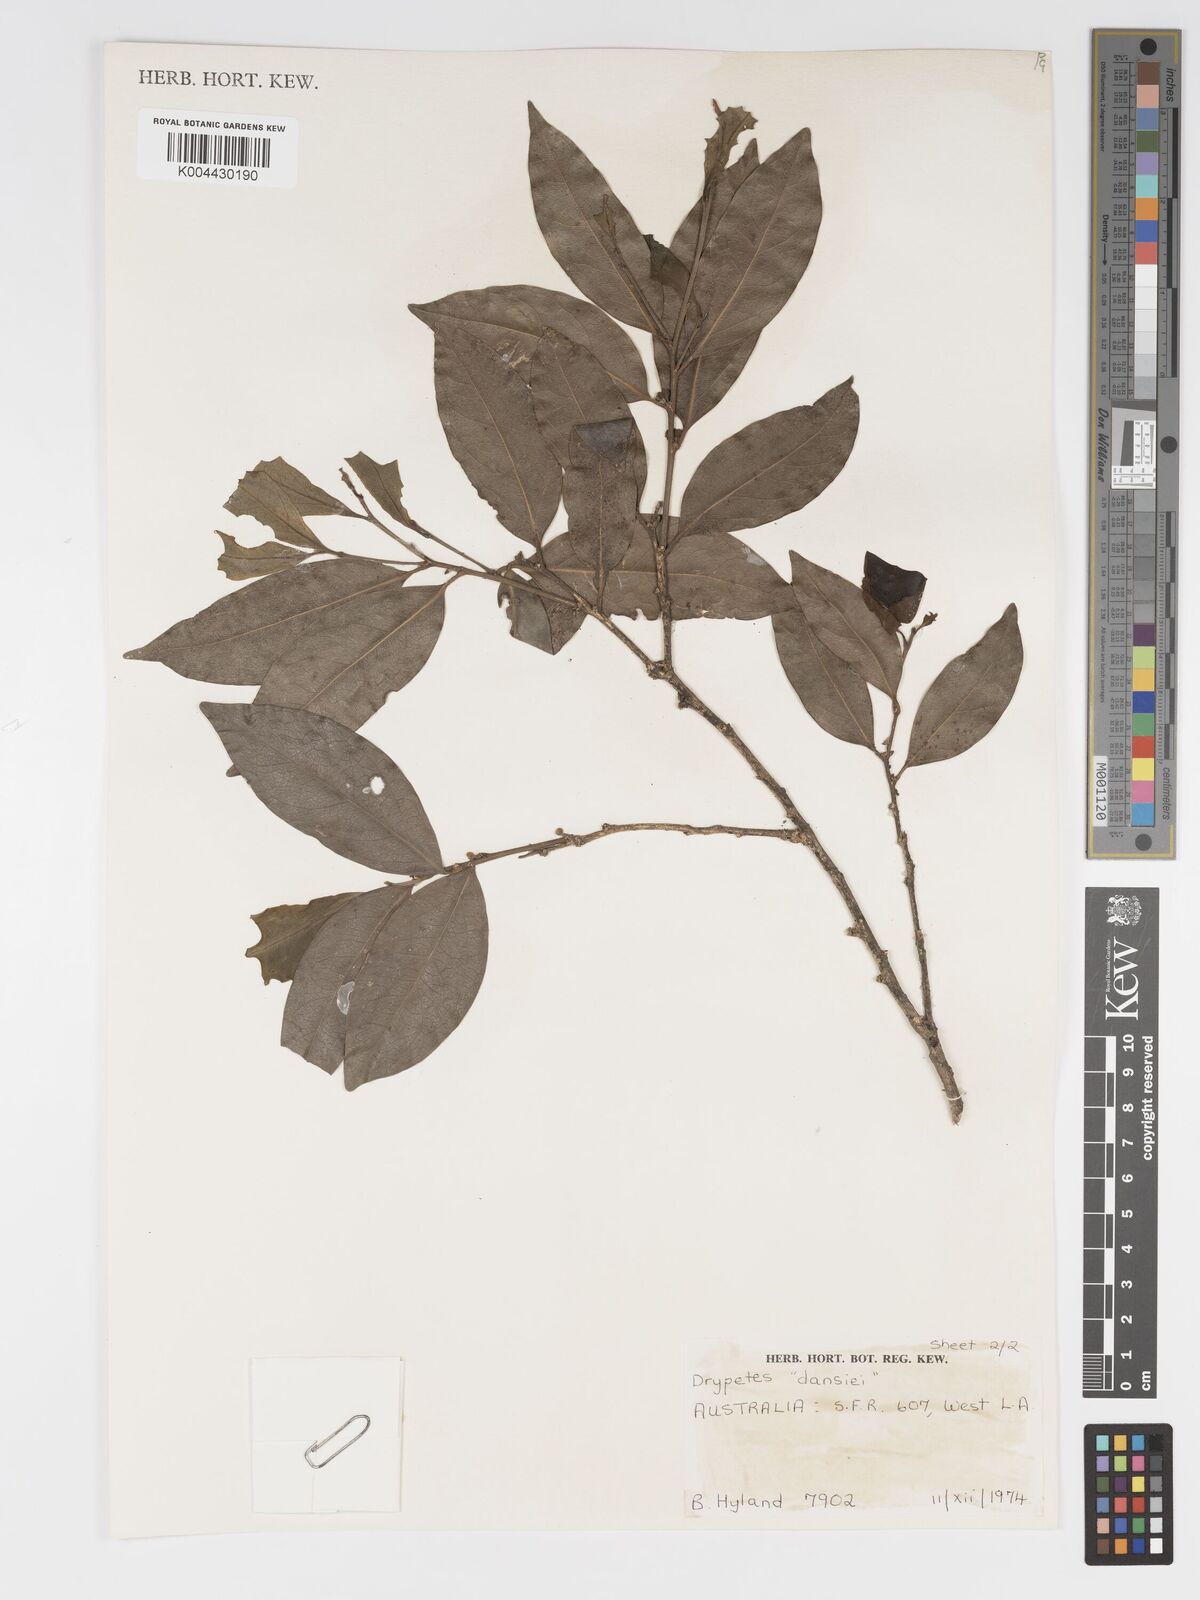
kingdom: Plantae
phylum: Tracheophyta
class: Magnoliopsida
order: Malpighiales
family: Putranjivaceae
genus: Drypetes
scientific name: Drypetes subcubica
